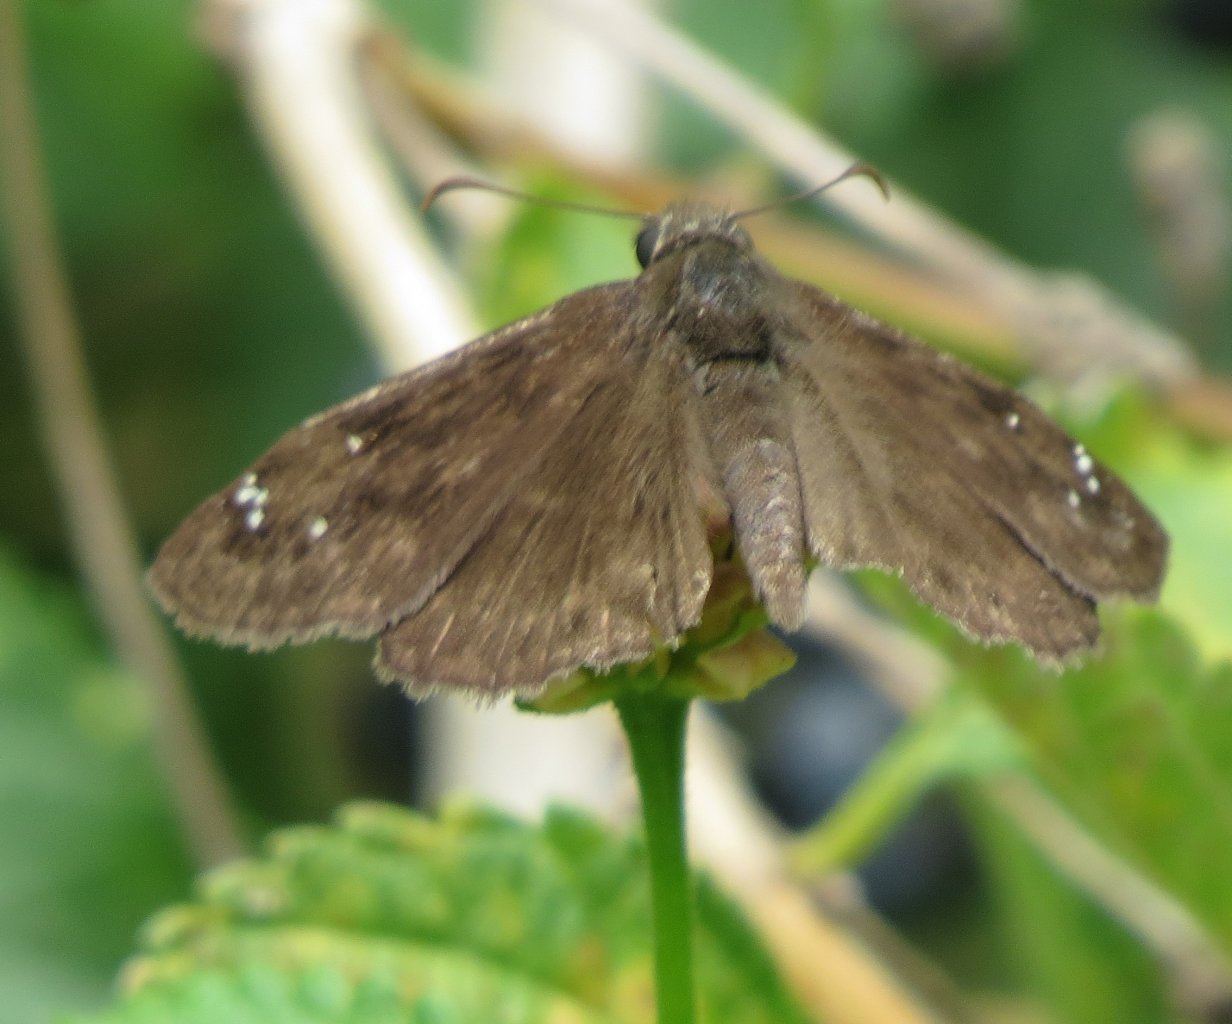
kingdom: Animalia
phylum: Arthropoda
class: Insecta
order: Lepidoptera
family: Hesperiidae
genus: Gesta
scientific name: Gesta
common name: Horace's Duskywing
